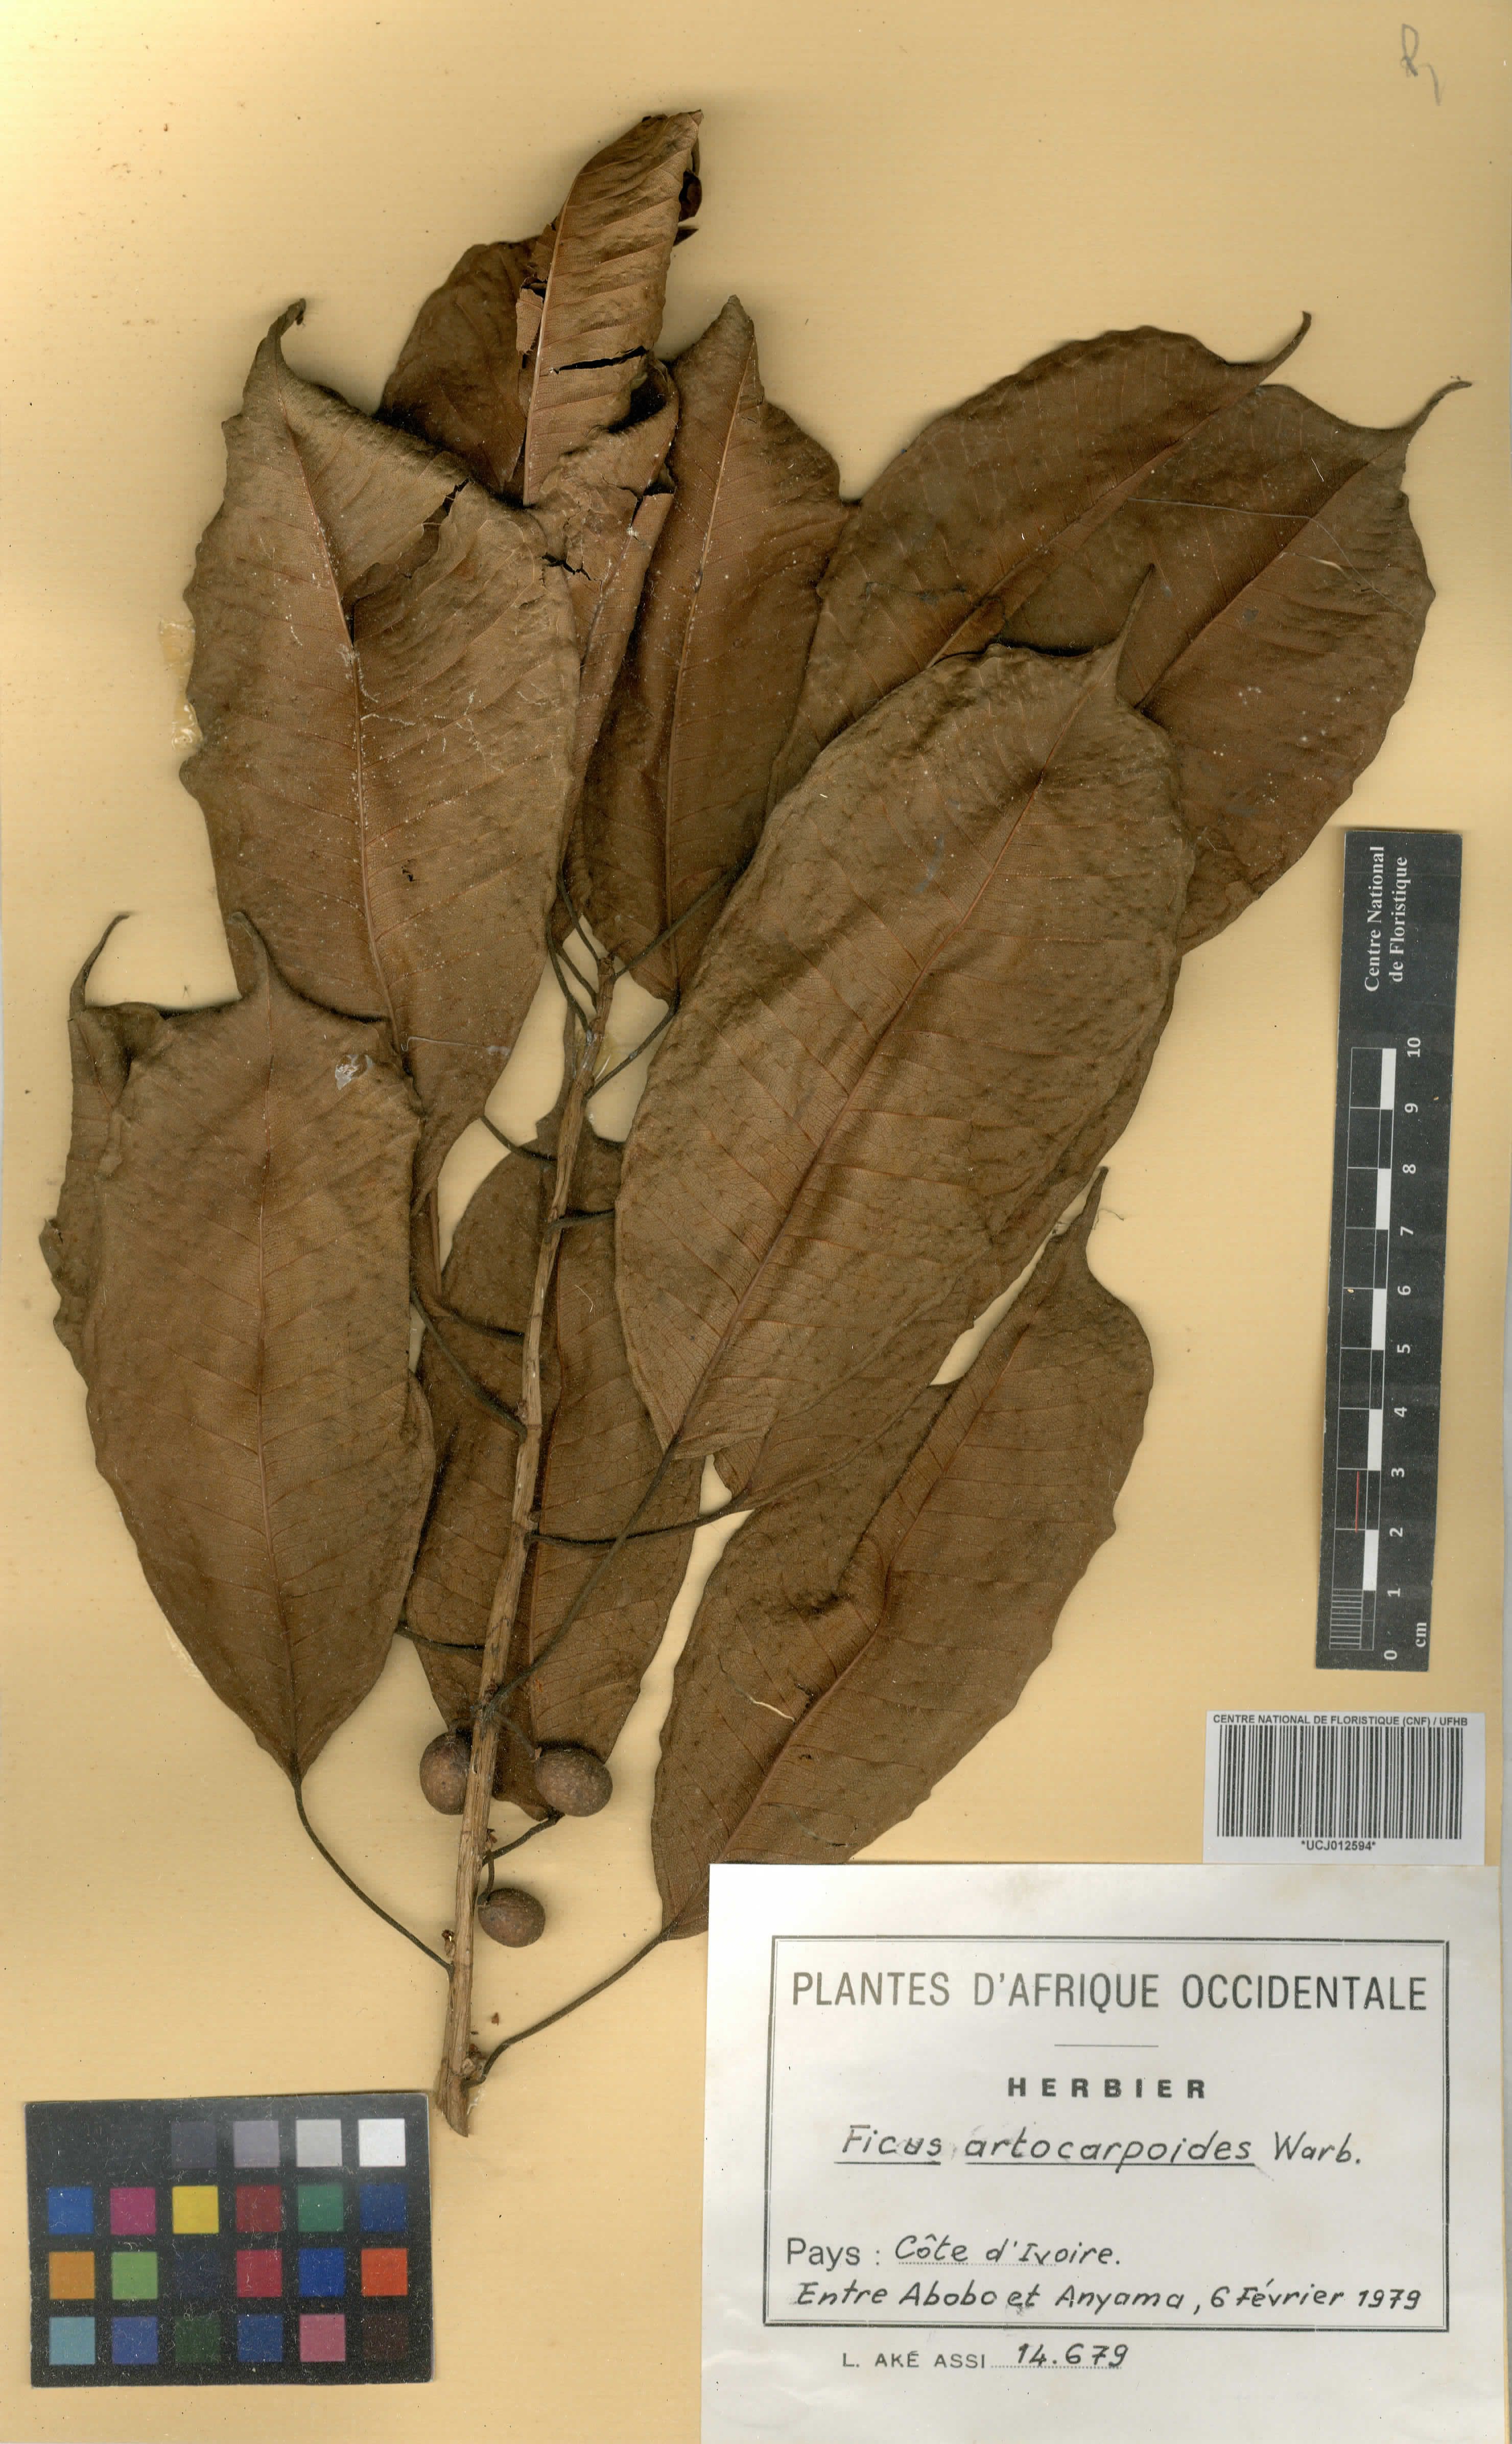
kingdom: Plantae
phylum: Tracheophyta
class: Magnoliopsida
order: Rosales
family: Moraceae
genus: Ficus
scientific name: Ficus demeusei
